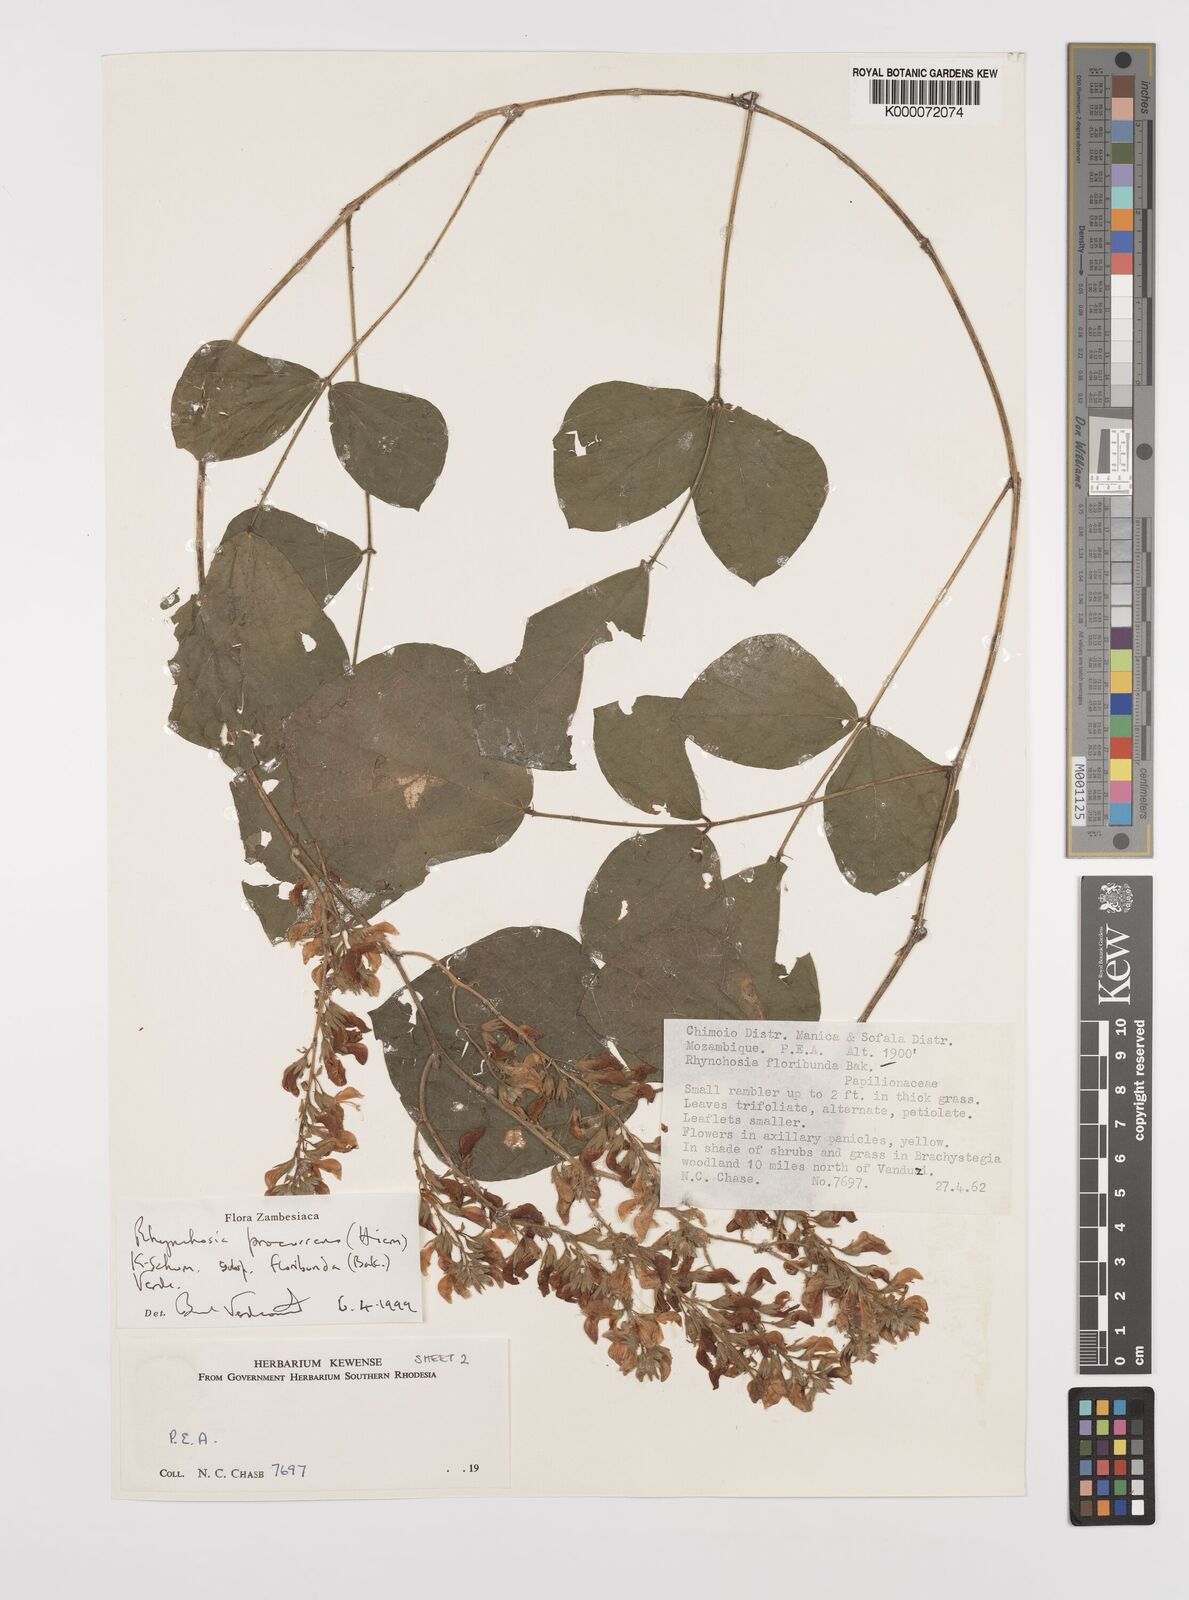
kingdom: Plantae
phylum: Tracheophyta
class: Magnoliopsida
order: Fabales
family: Fabaceae
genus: Rhynchosia
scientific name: Rhynchosia procurrens
